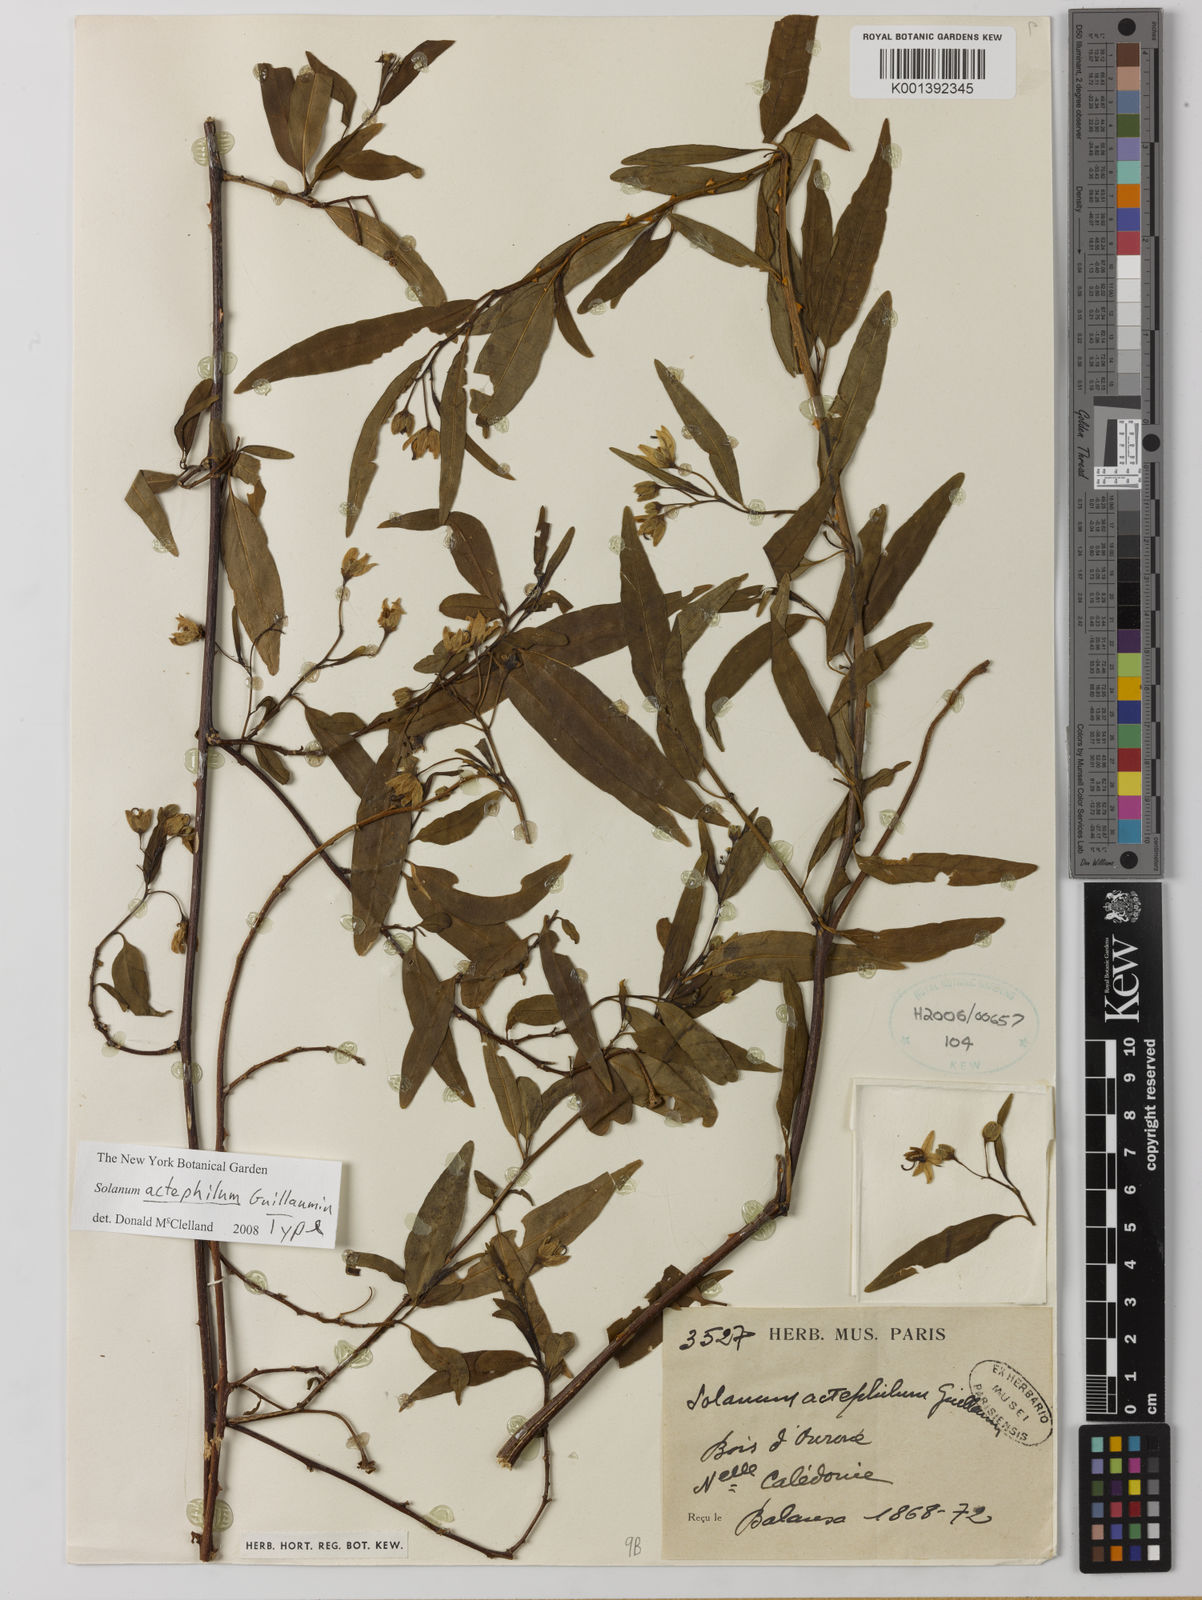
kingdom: Plantae
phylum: Tracheophyta
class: Magnoliopsida
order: Solanales
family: Solanaceae
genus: Solanum
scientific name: Solanum actephilum
